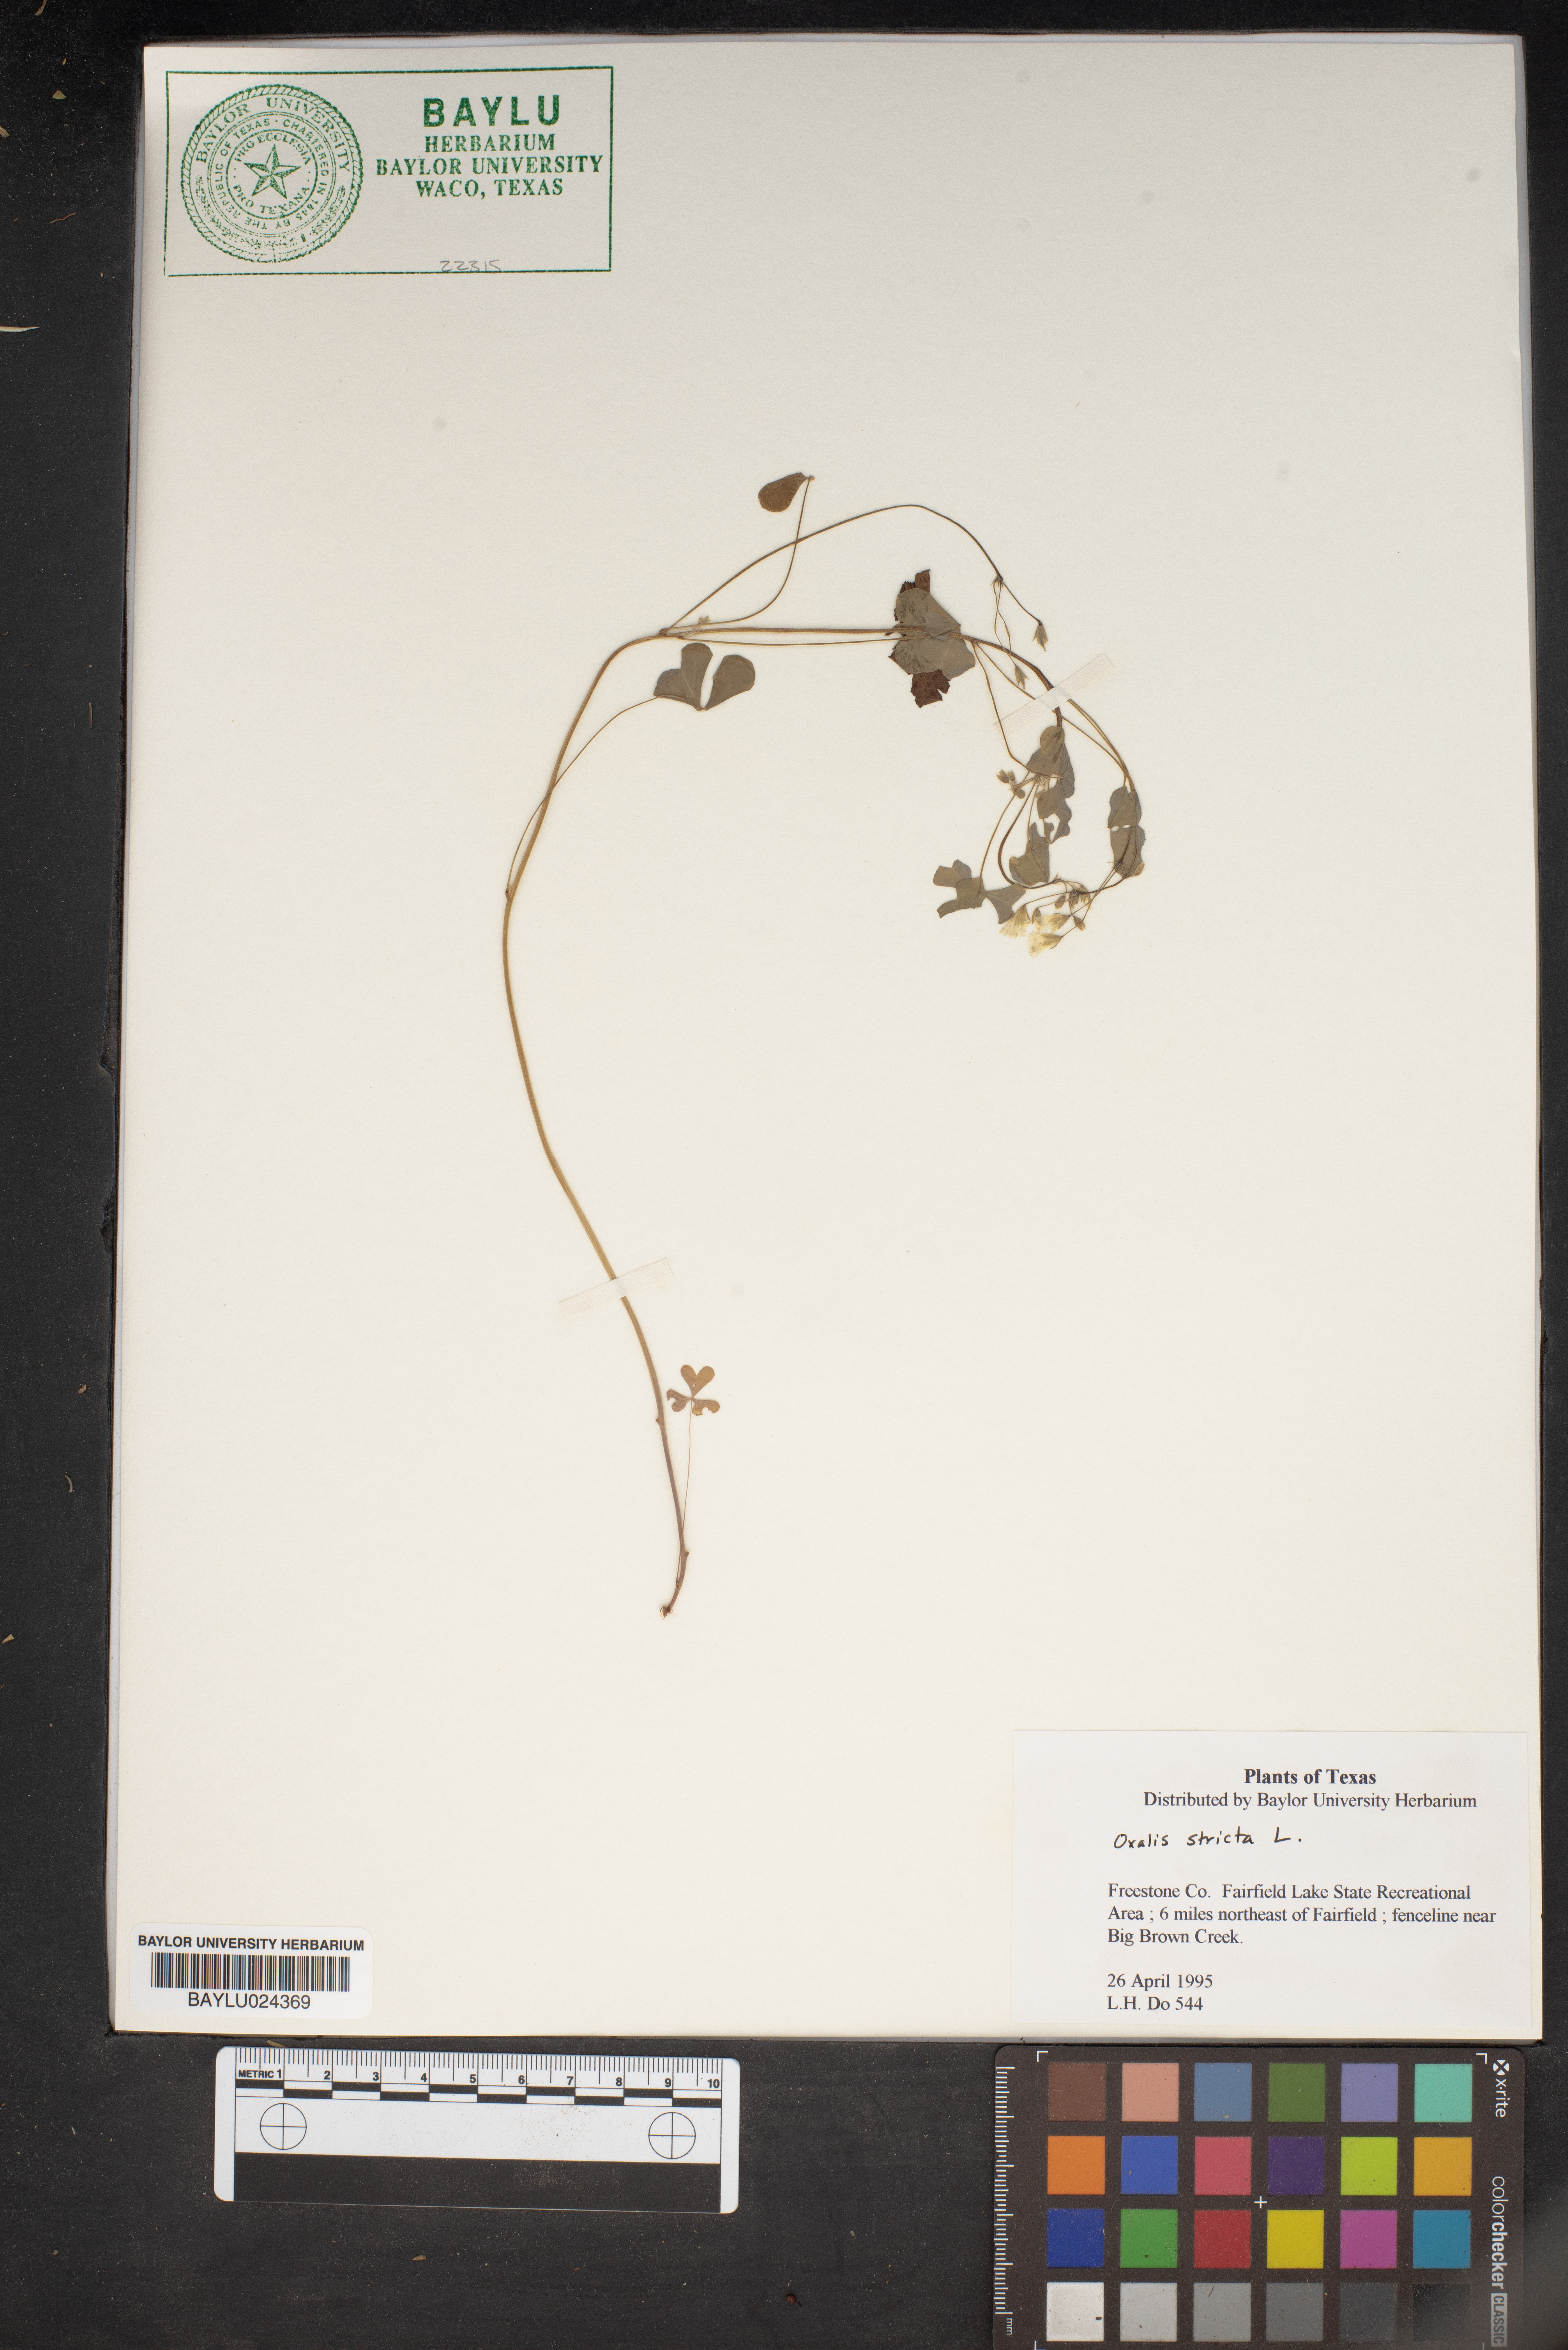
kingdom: Plantae
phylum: Tracheophyta
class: Magnoliopsida
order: Oxalidales
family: Oxalidaceae
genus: Oxalis
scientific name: Oxalis stricta
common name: Upright yellow-sorrel
